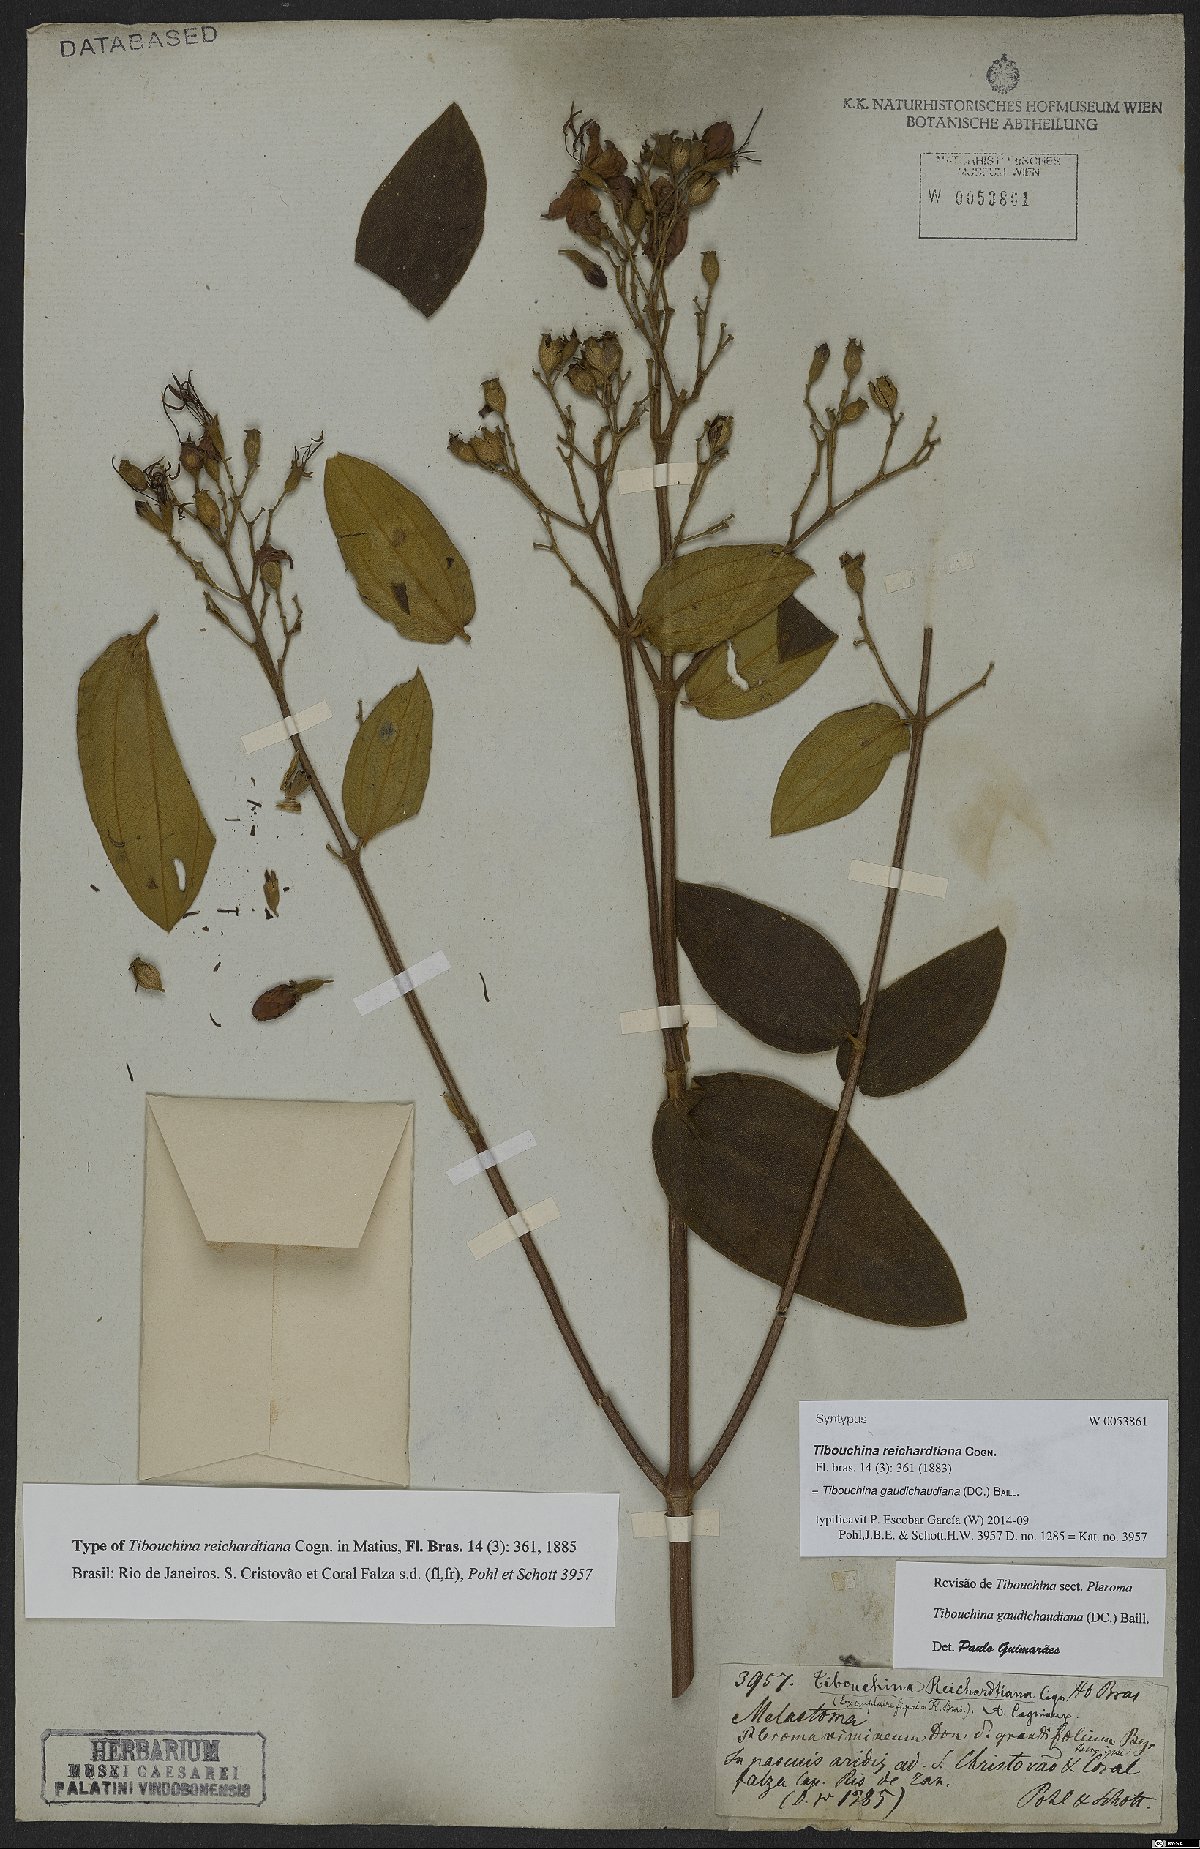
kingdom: Plantae
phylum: Tracheophyta
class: Magnoliopsida
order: Myrtales
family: Melastomataceae
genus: Pleroma
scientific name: Pleroma gaudichaudianum
